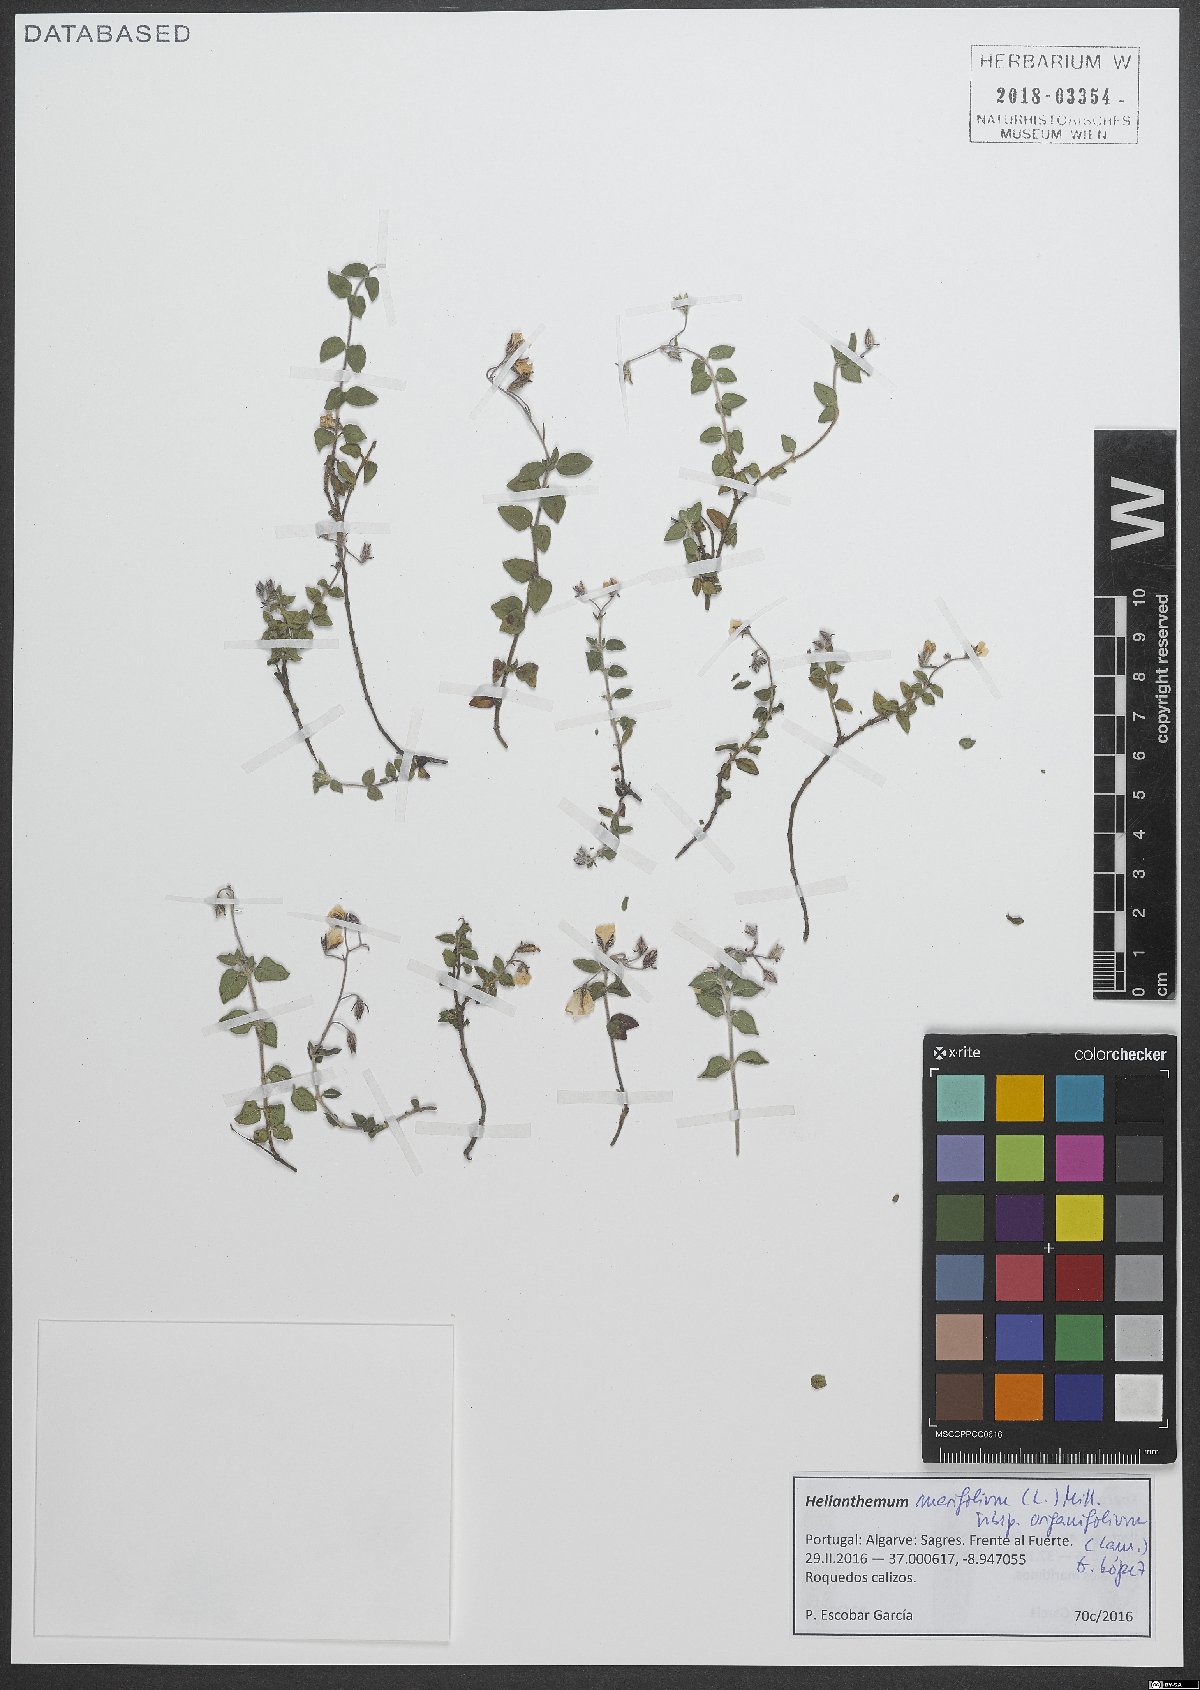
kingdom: Plantae
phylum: Tracheophyta
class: Magnoliopsida
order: Malvales
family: Cistaceae
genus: Helianthemum
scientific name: Helianthemum origanifolium
